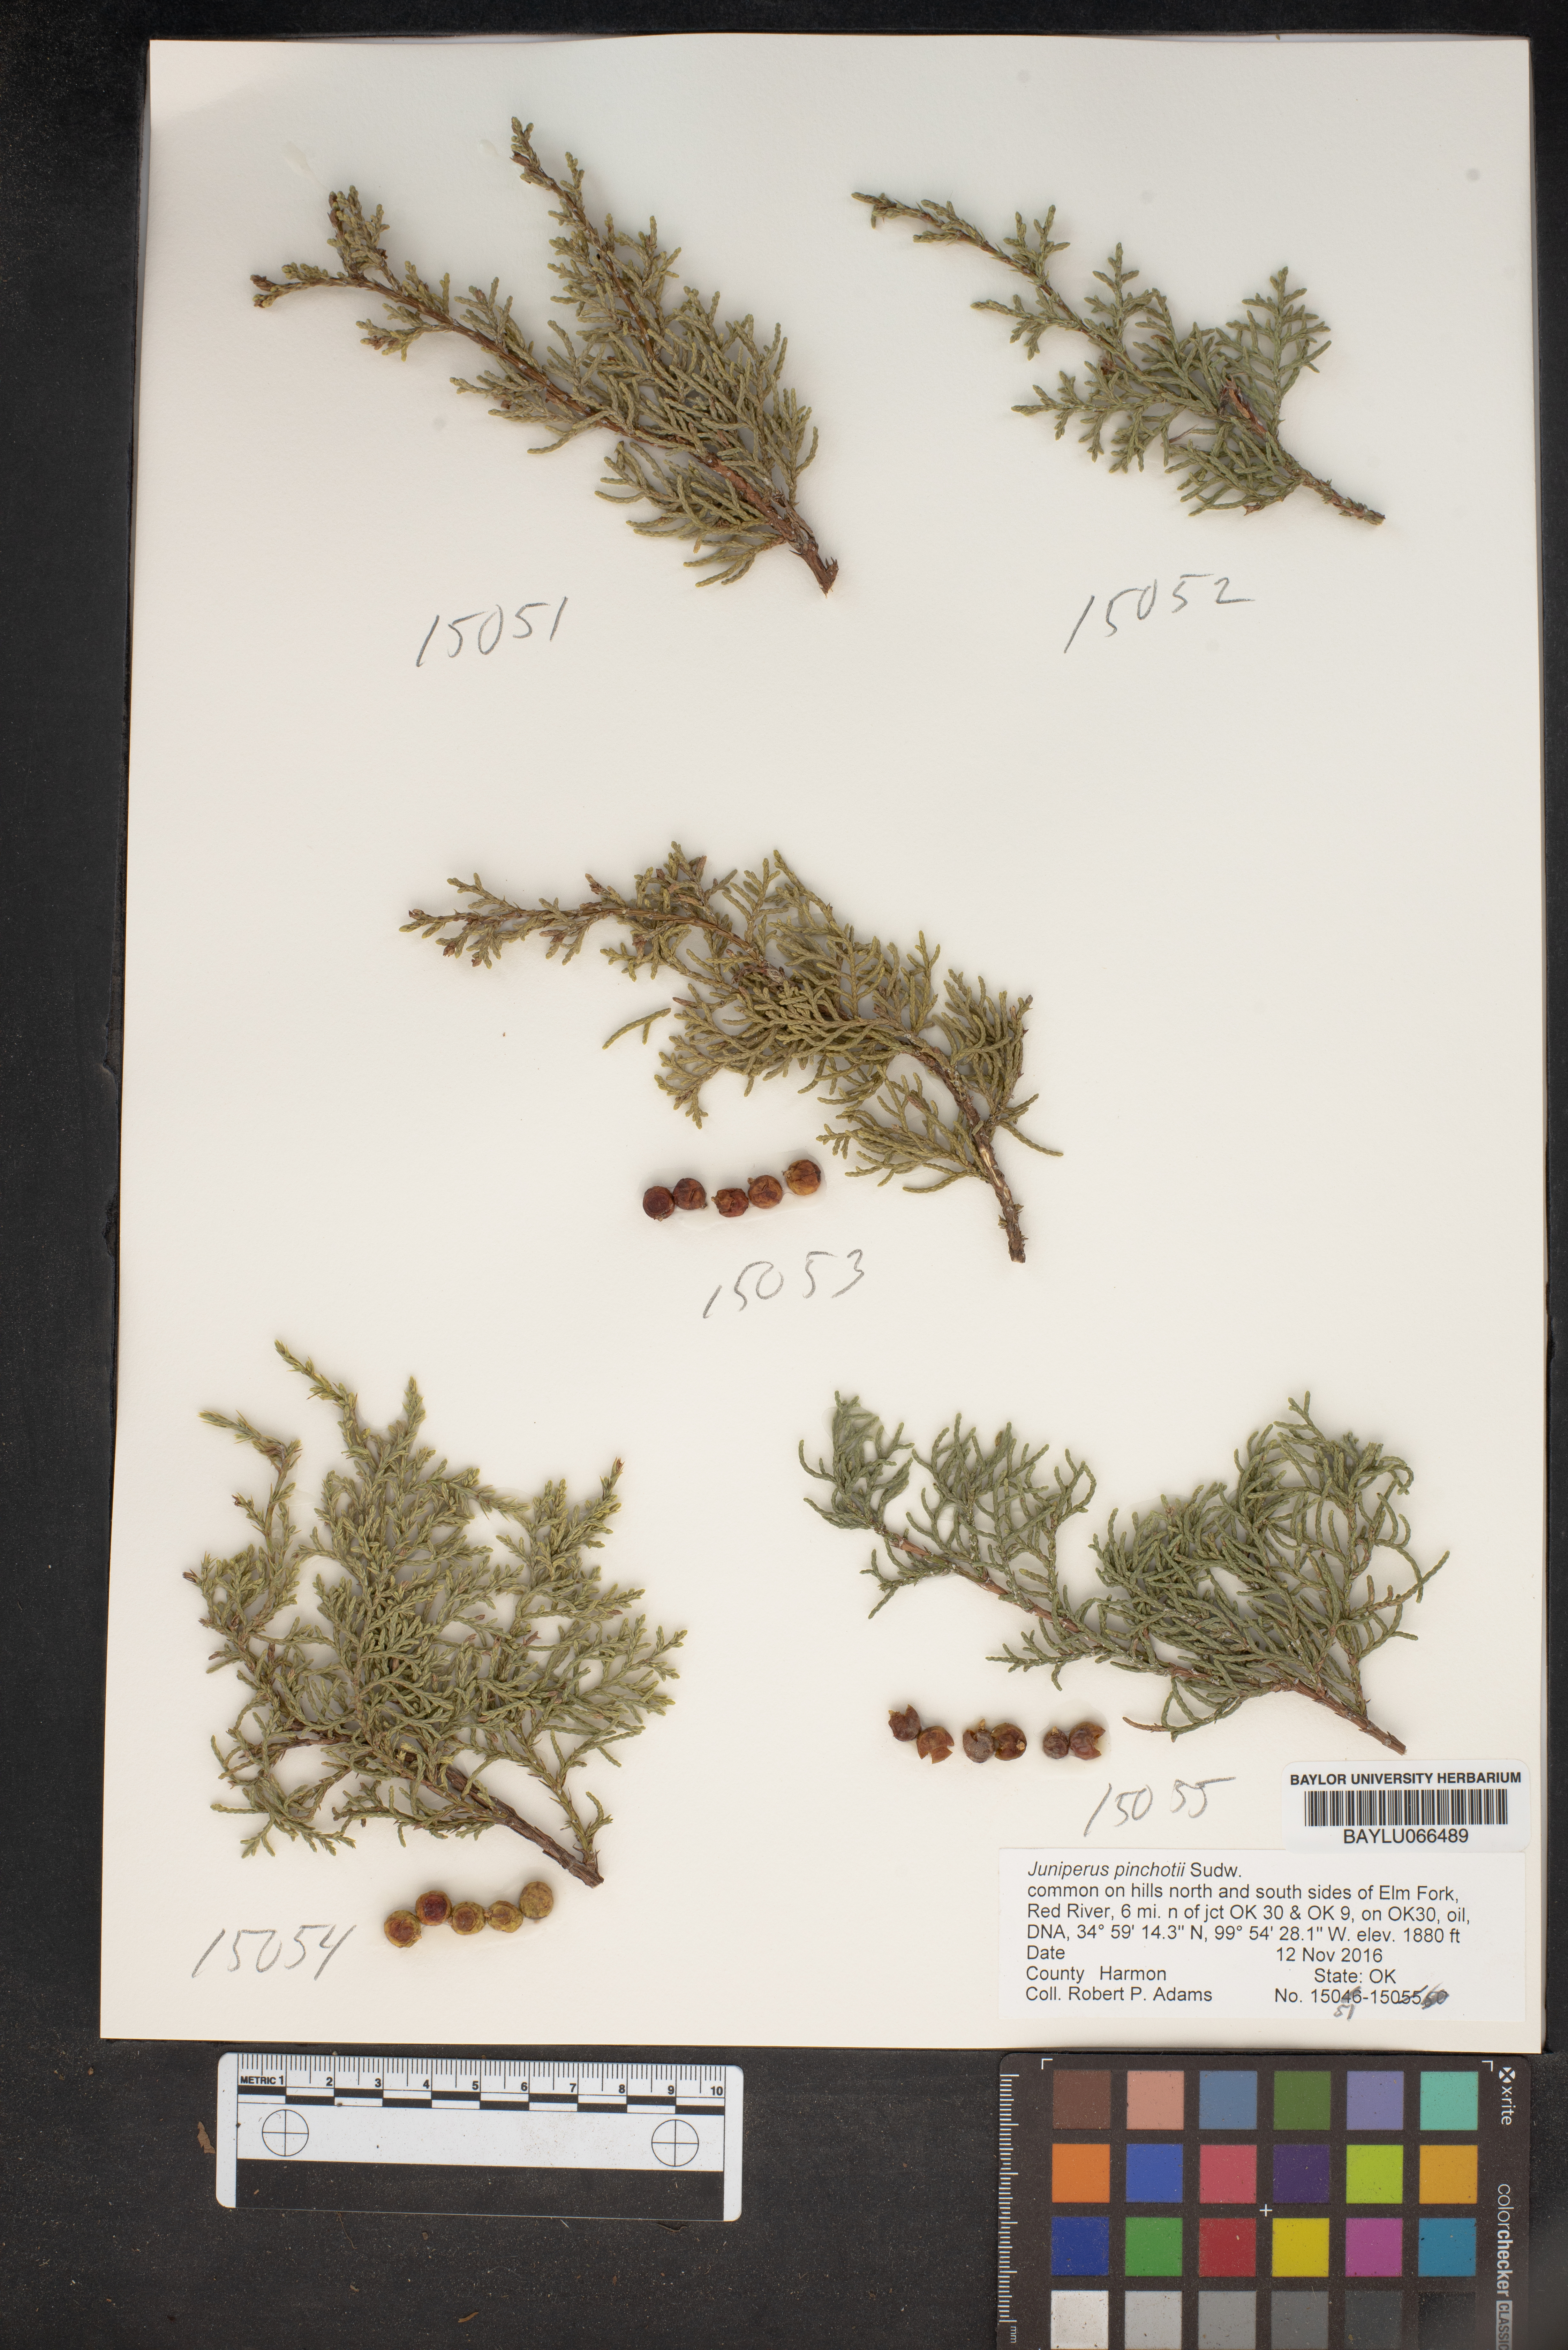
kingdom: Plantae
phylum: Tracheophyta
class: Pinopsida
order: Pinales
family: Cupressaceae
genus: Juniperus
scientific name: Juniperus pinchotii
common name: Pinchot juniper
